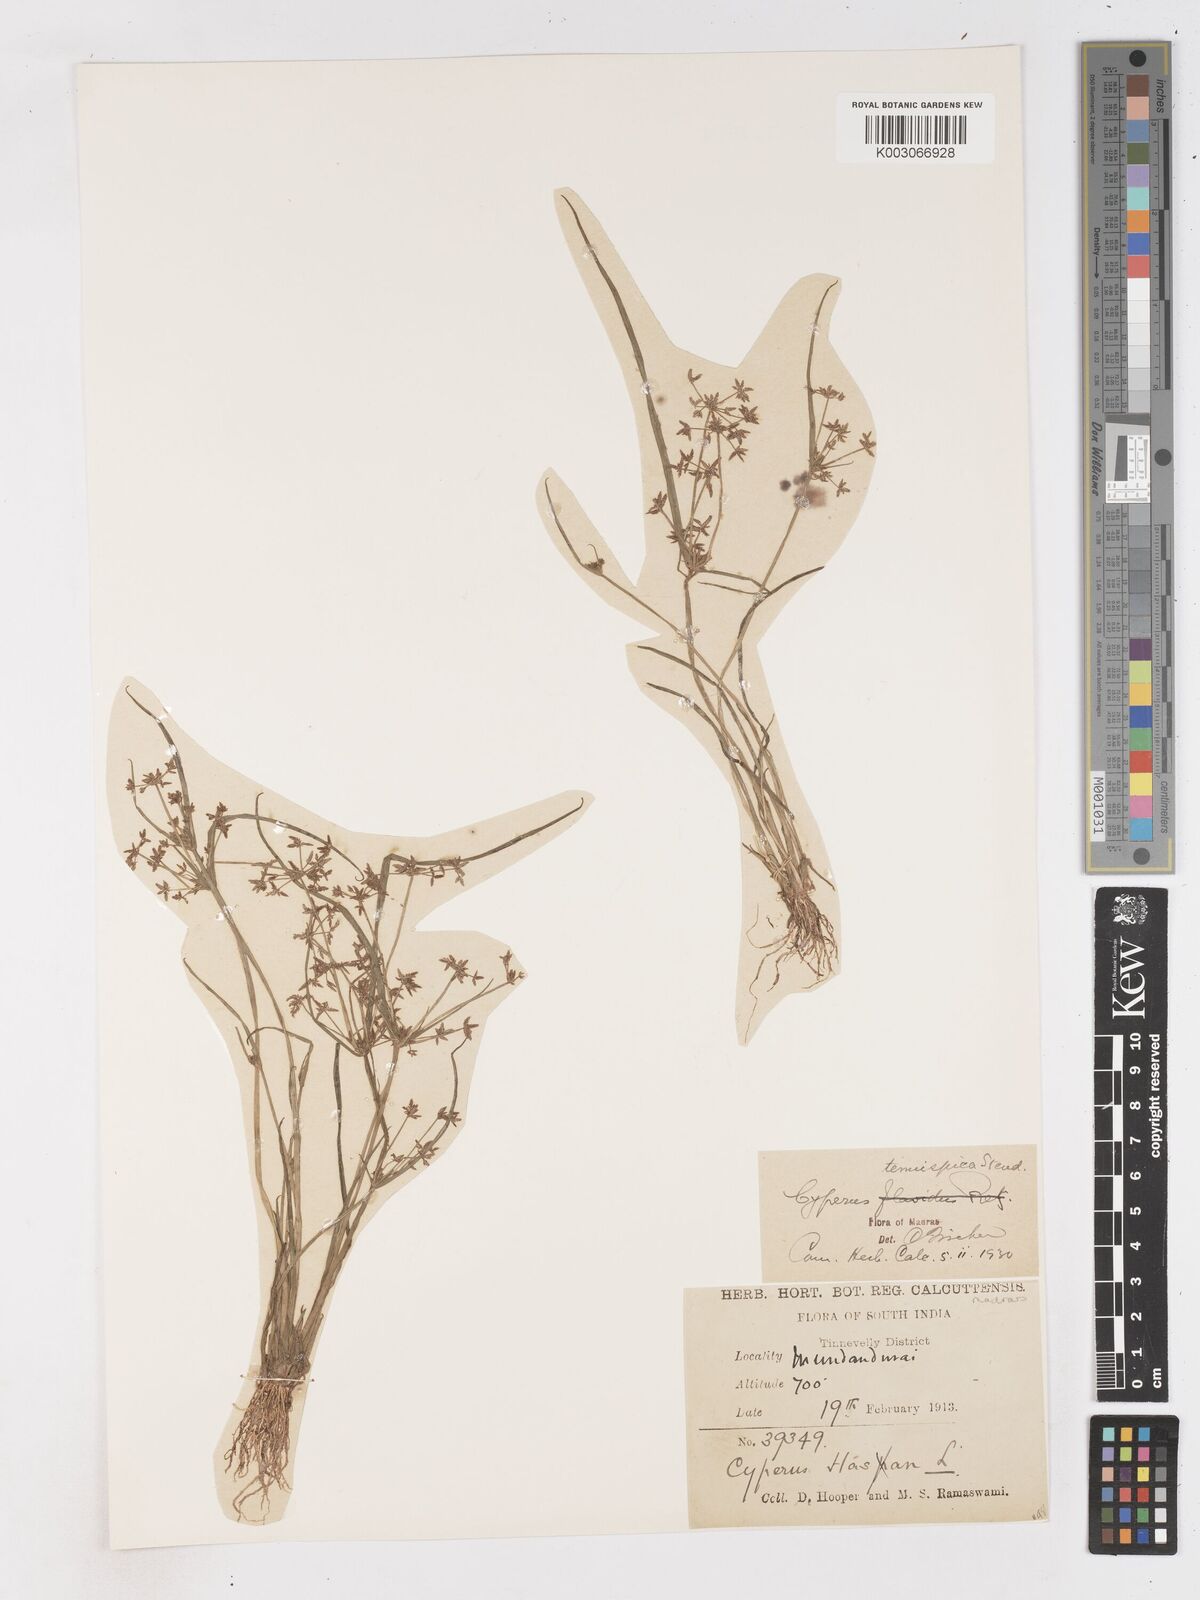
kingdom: Plantae
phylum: Tracheophyta
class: Liliopsida
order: Poales
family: Cyperaceae
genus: Cyperus
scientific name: Cyperus tenuispica
